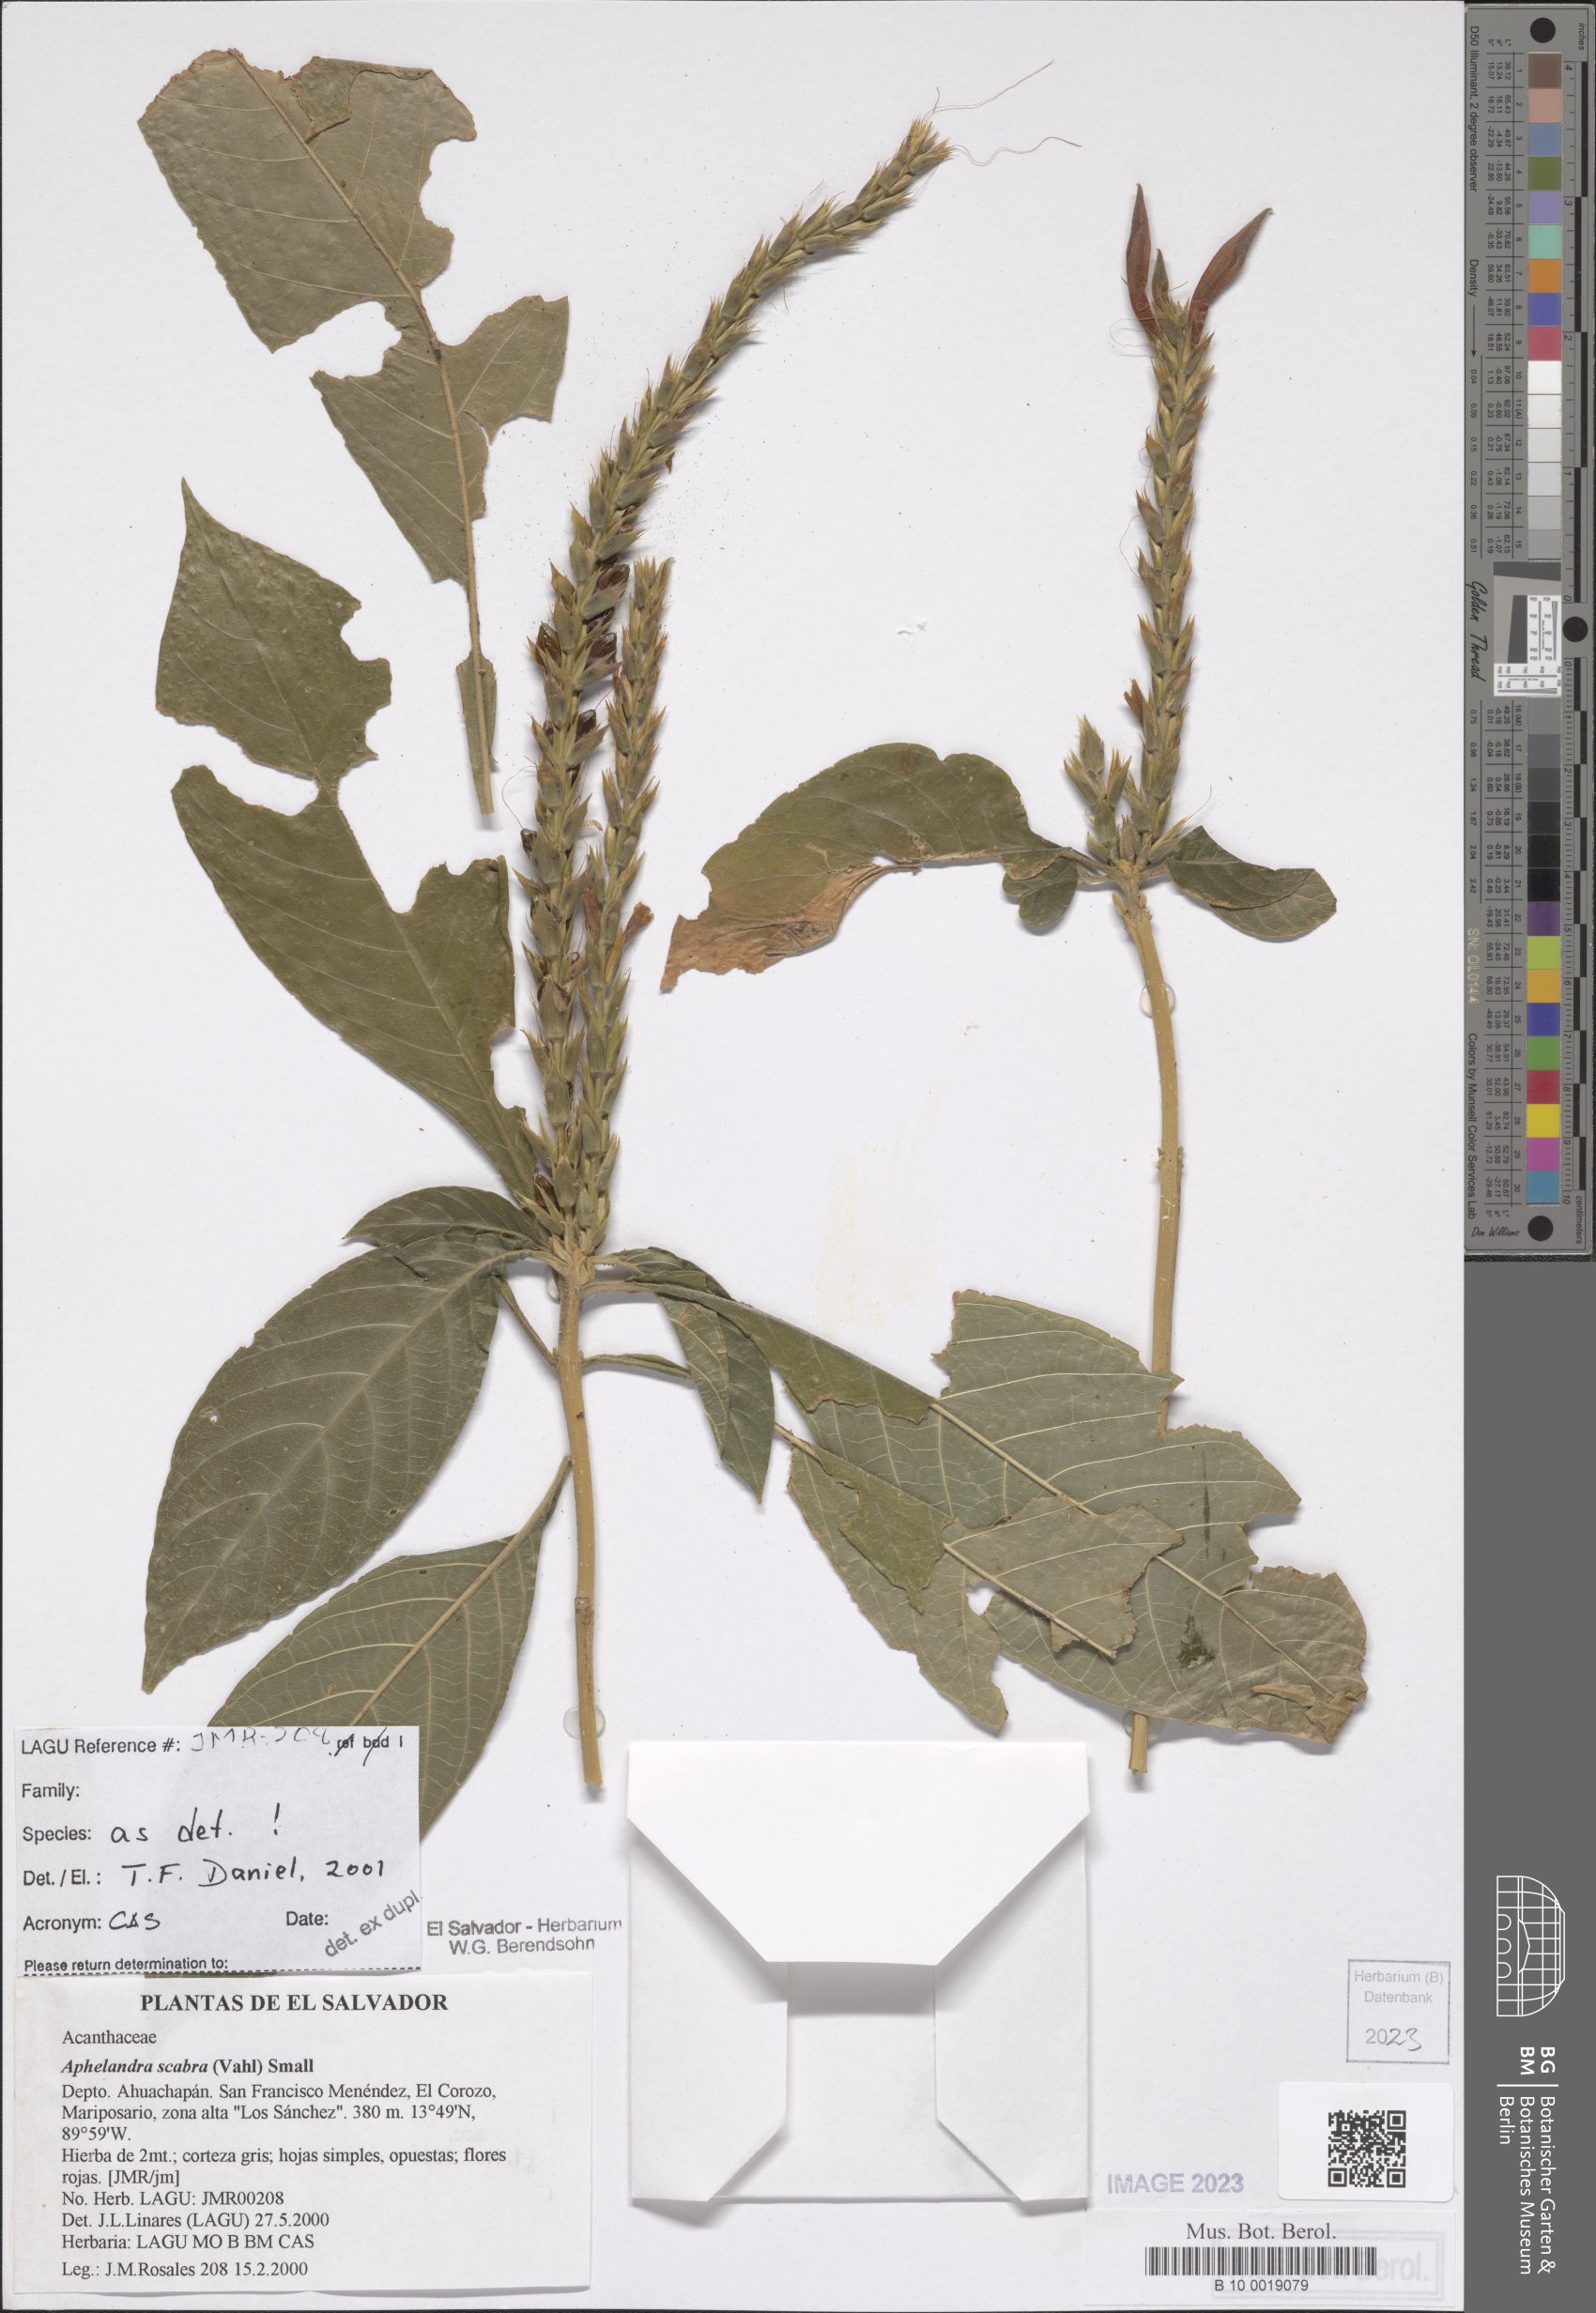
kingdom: Plantae
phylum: Tracheophyta
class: Magnoliopsida
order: Lamiales
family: Acanthaceae
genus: Aphelandra
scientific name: Aphelandra scabra
